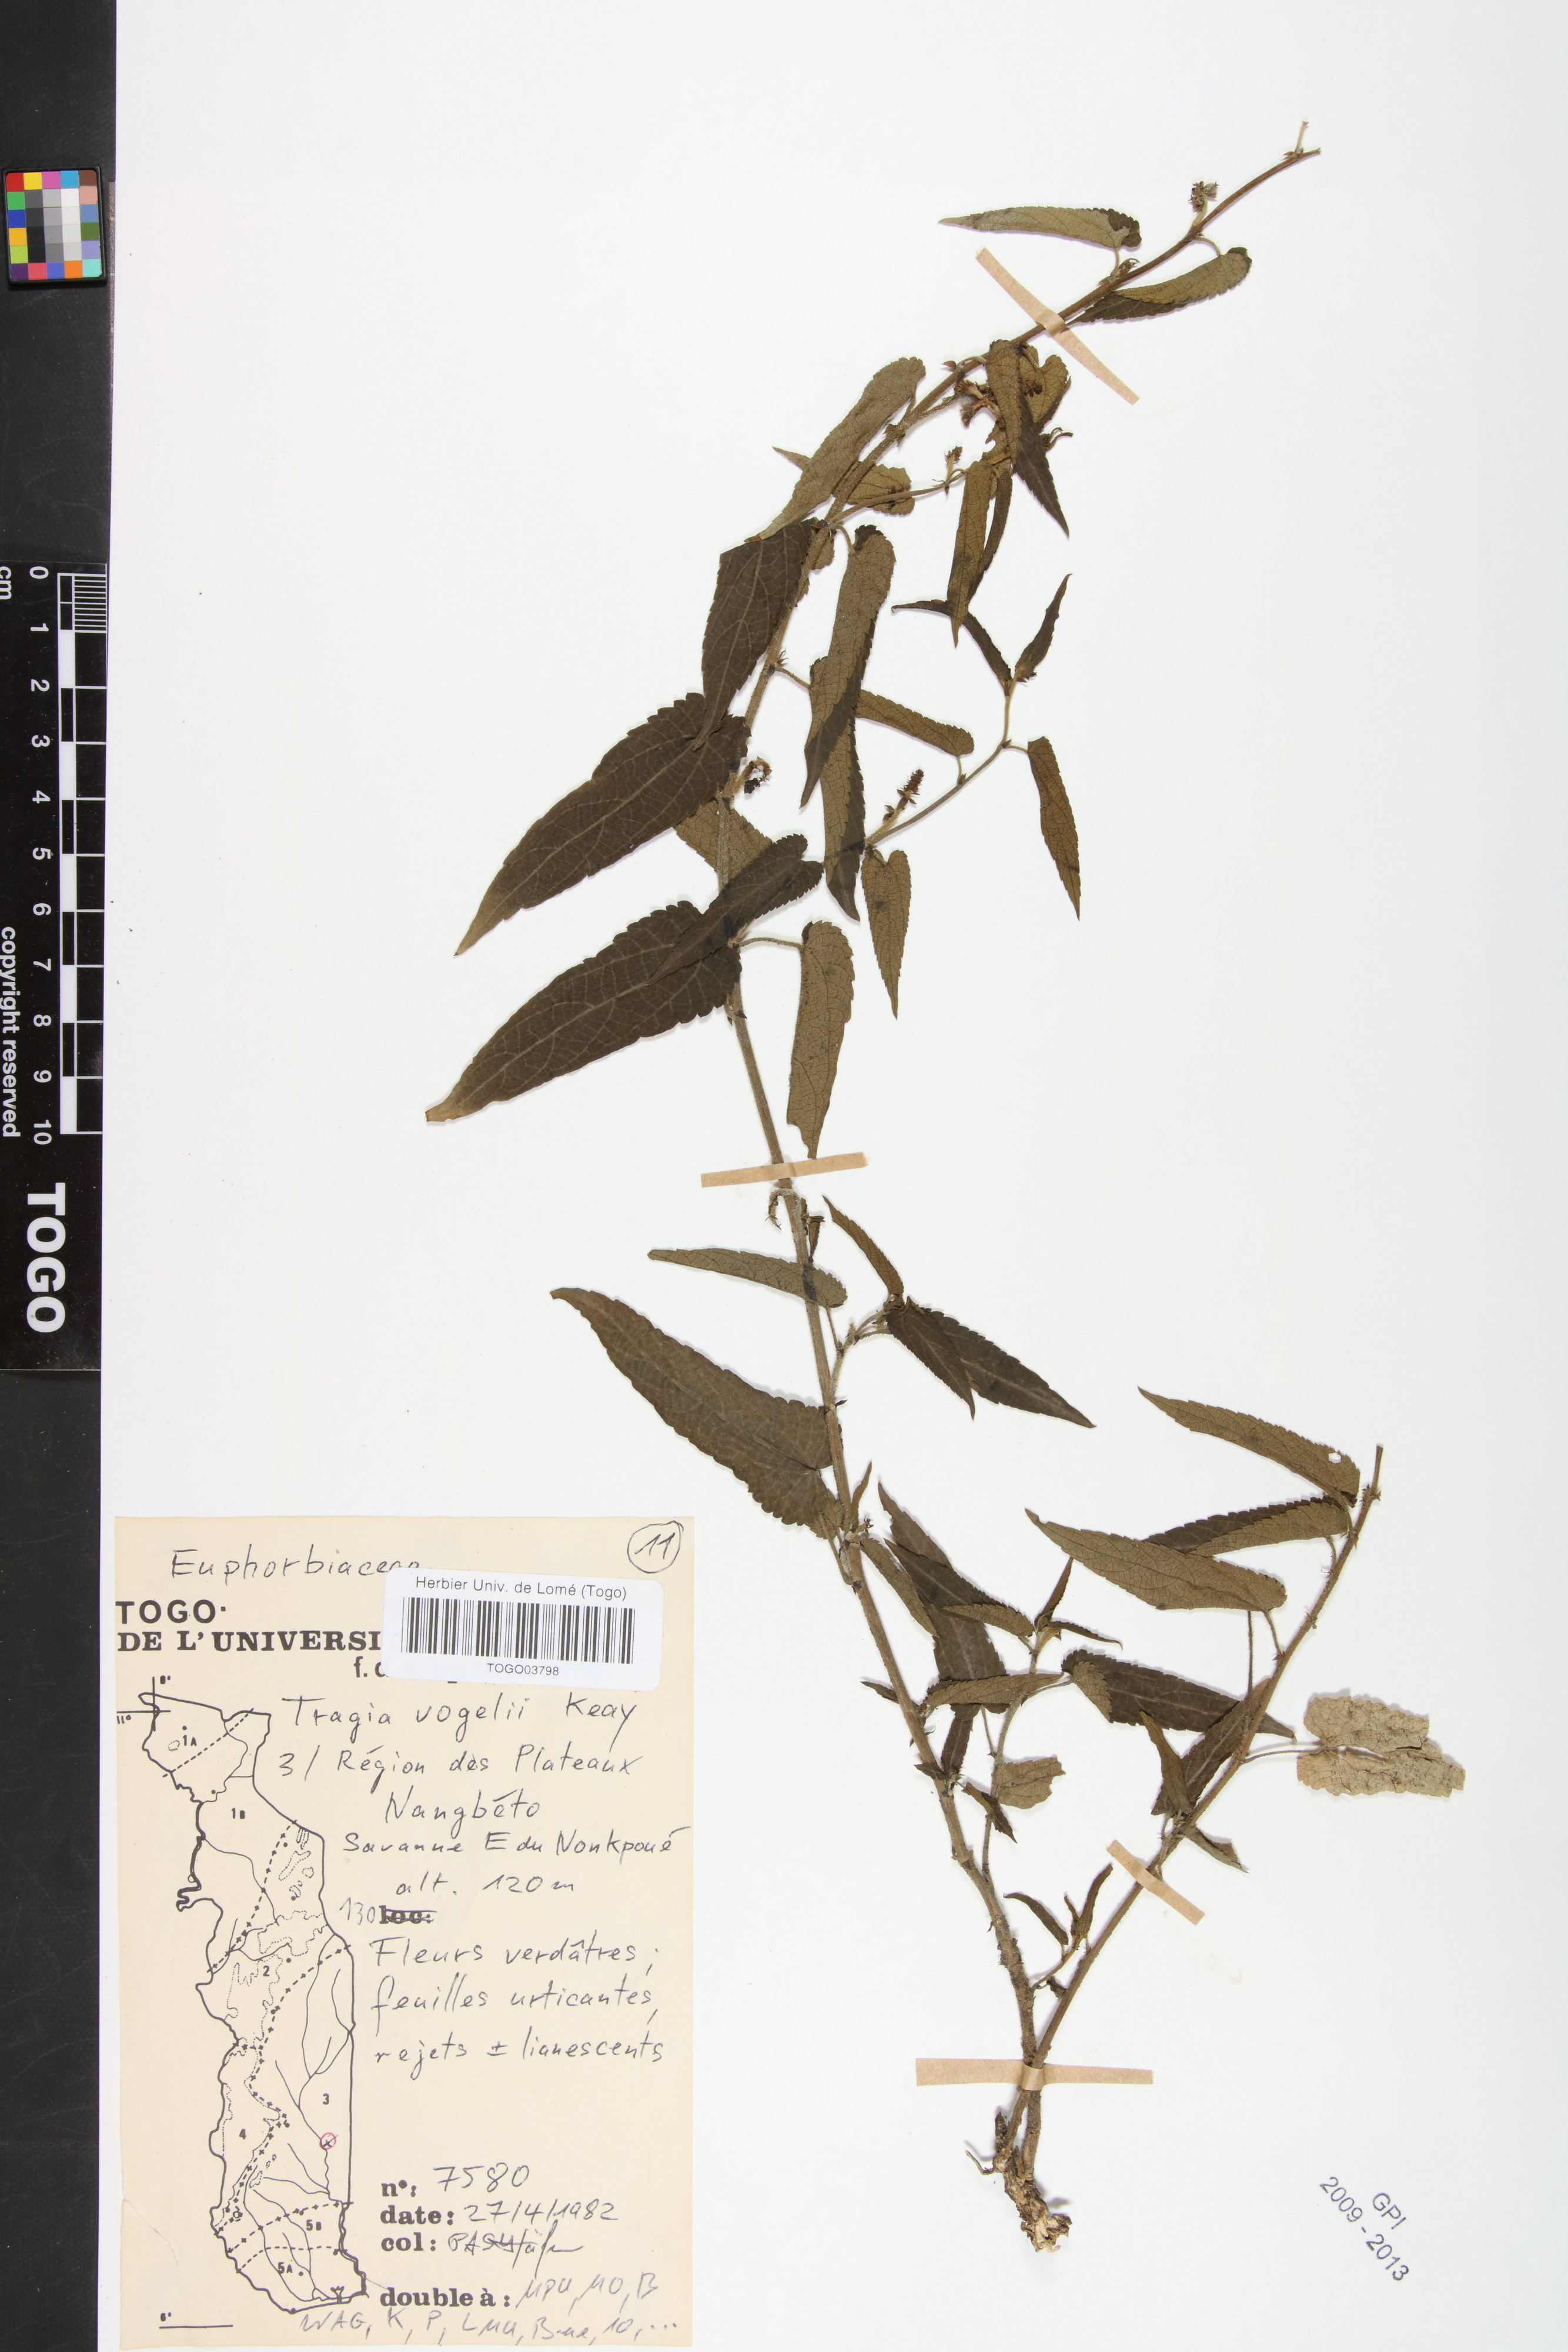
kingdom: Plantae
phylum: Tracheophyta
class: Magnoliopsida
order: Malpighiales
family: Euphorbiaceae
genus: Tragia
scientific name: Tragia vogelii
